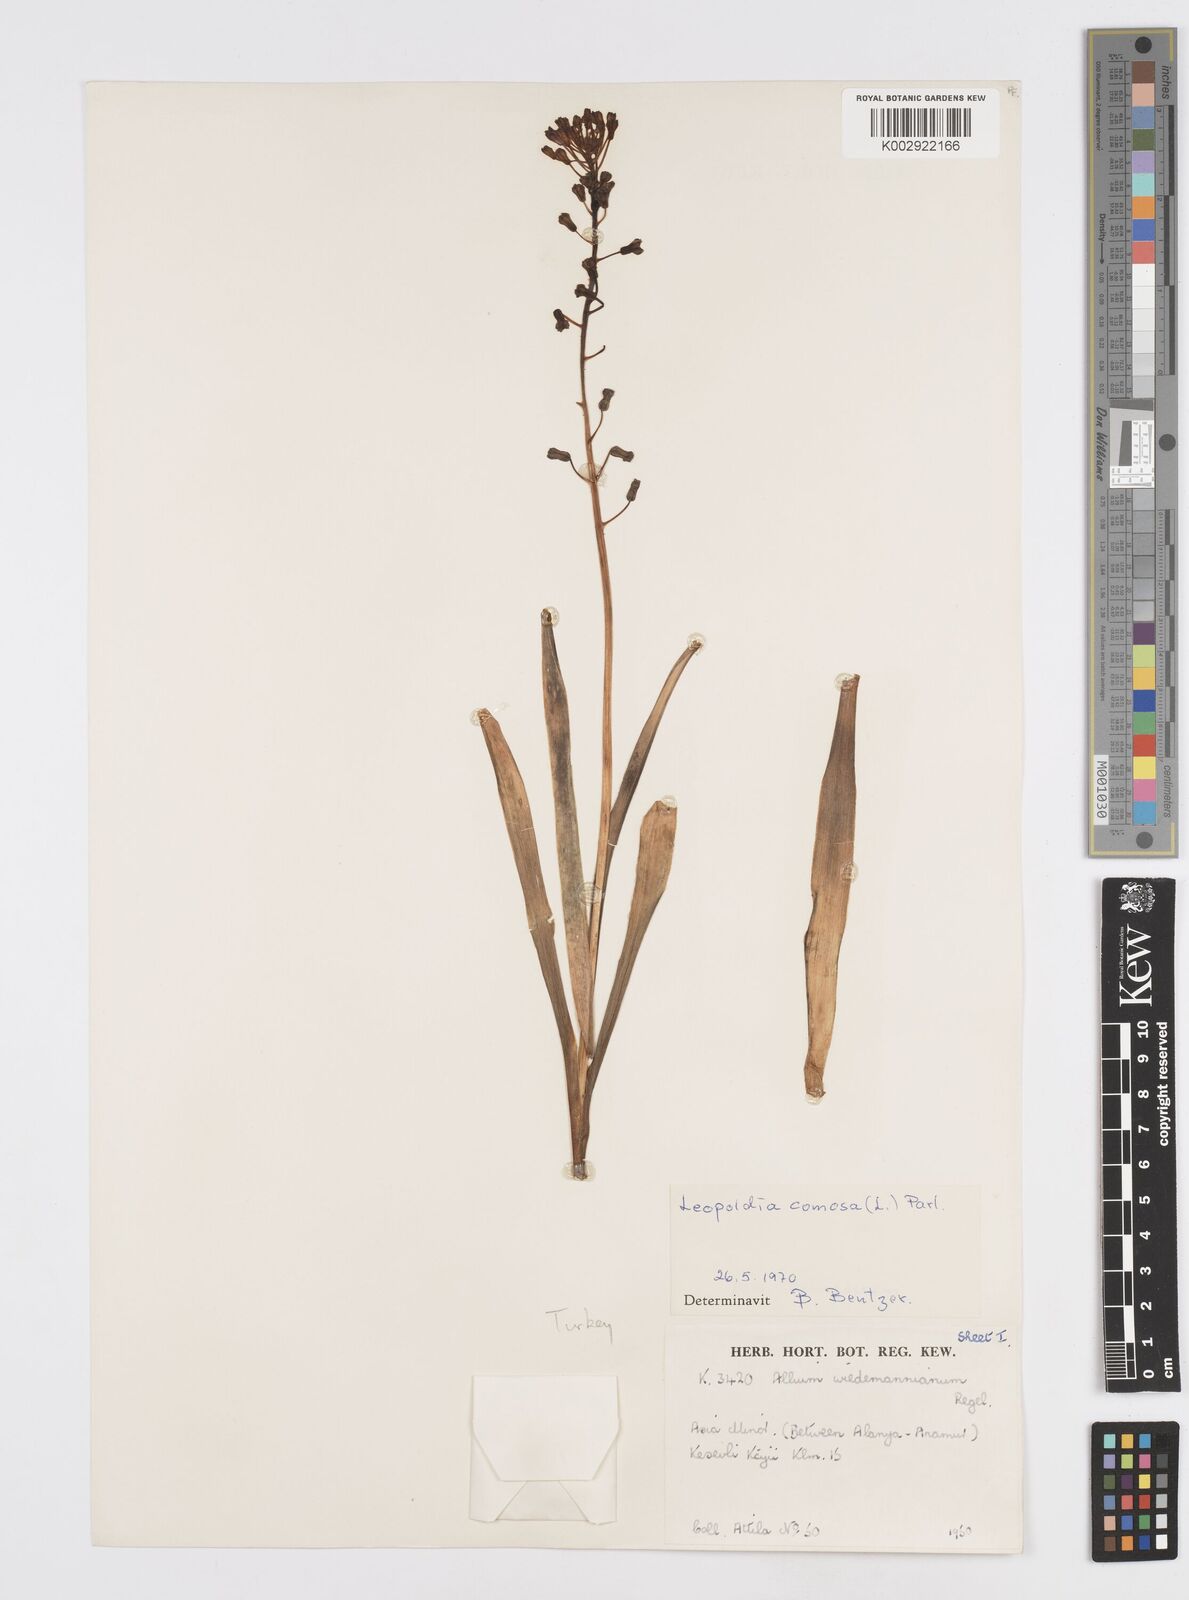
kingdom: Plantae
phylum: Tracheophyta
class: Liliopsida
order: Asparagales
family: Asparagaceae
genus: Muscari
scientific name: Muscari comosum
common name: Tassel hyacinth
